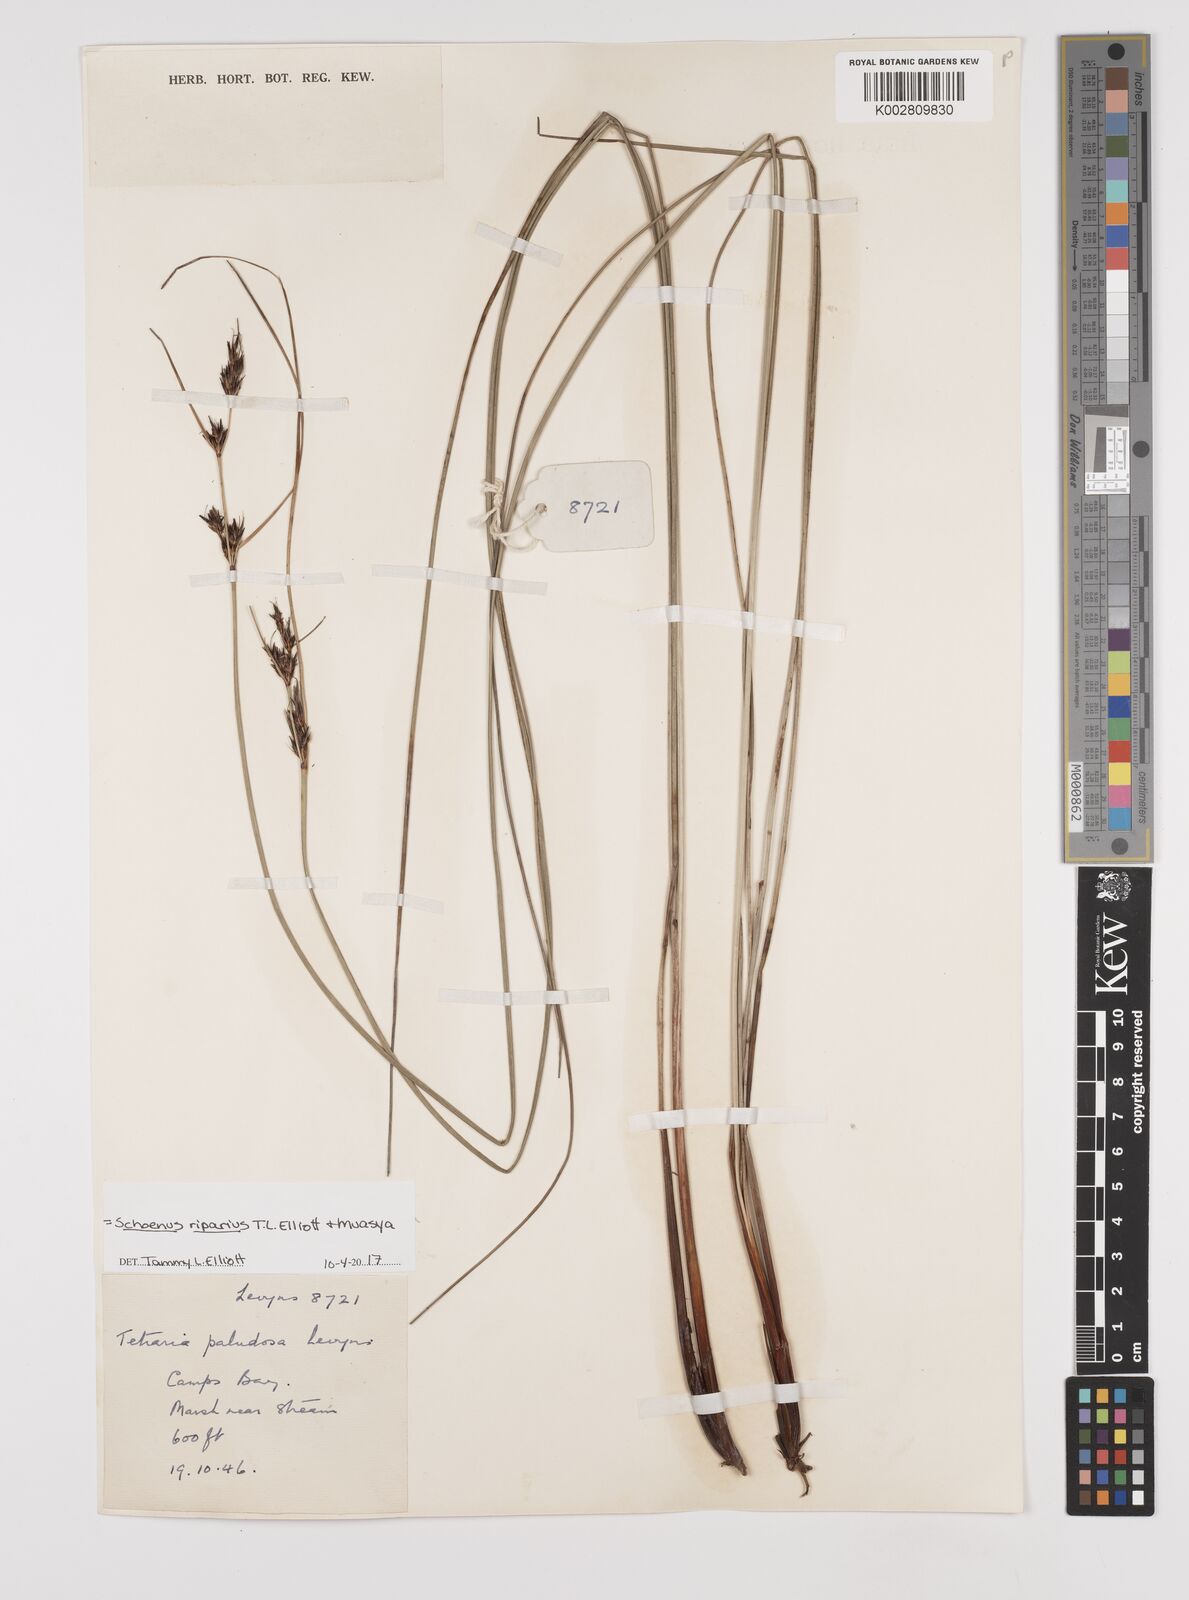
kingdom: Plantae
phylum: Tracheophyta
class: Liliopsida
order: Poales
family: Cyperaceae
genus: Schoenus
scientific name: Schoenus riparius
